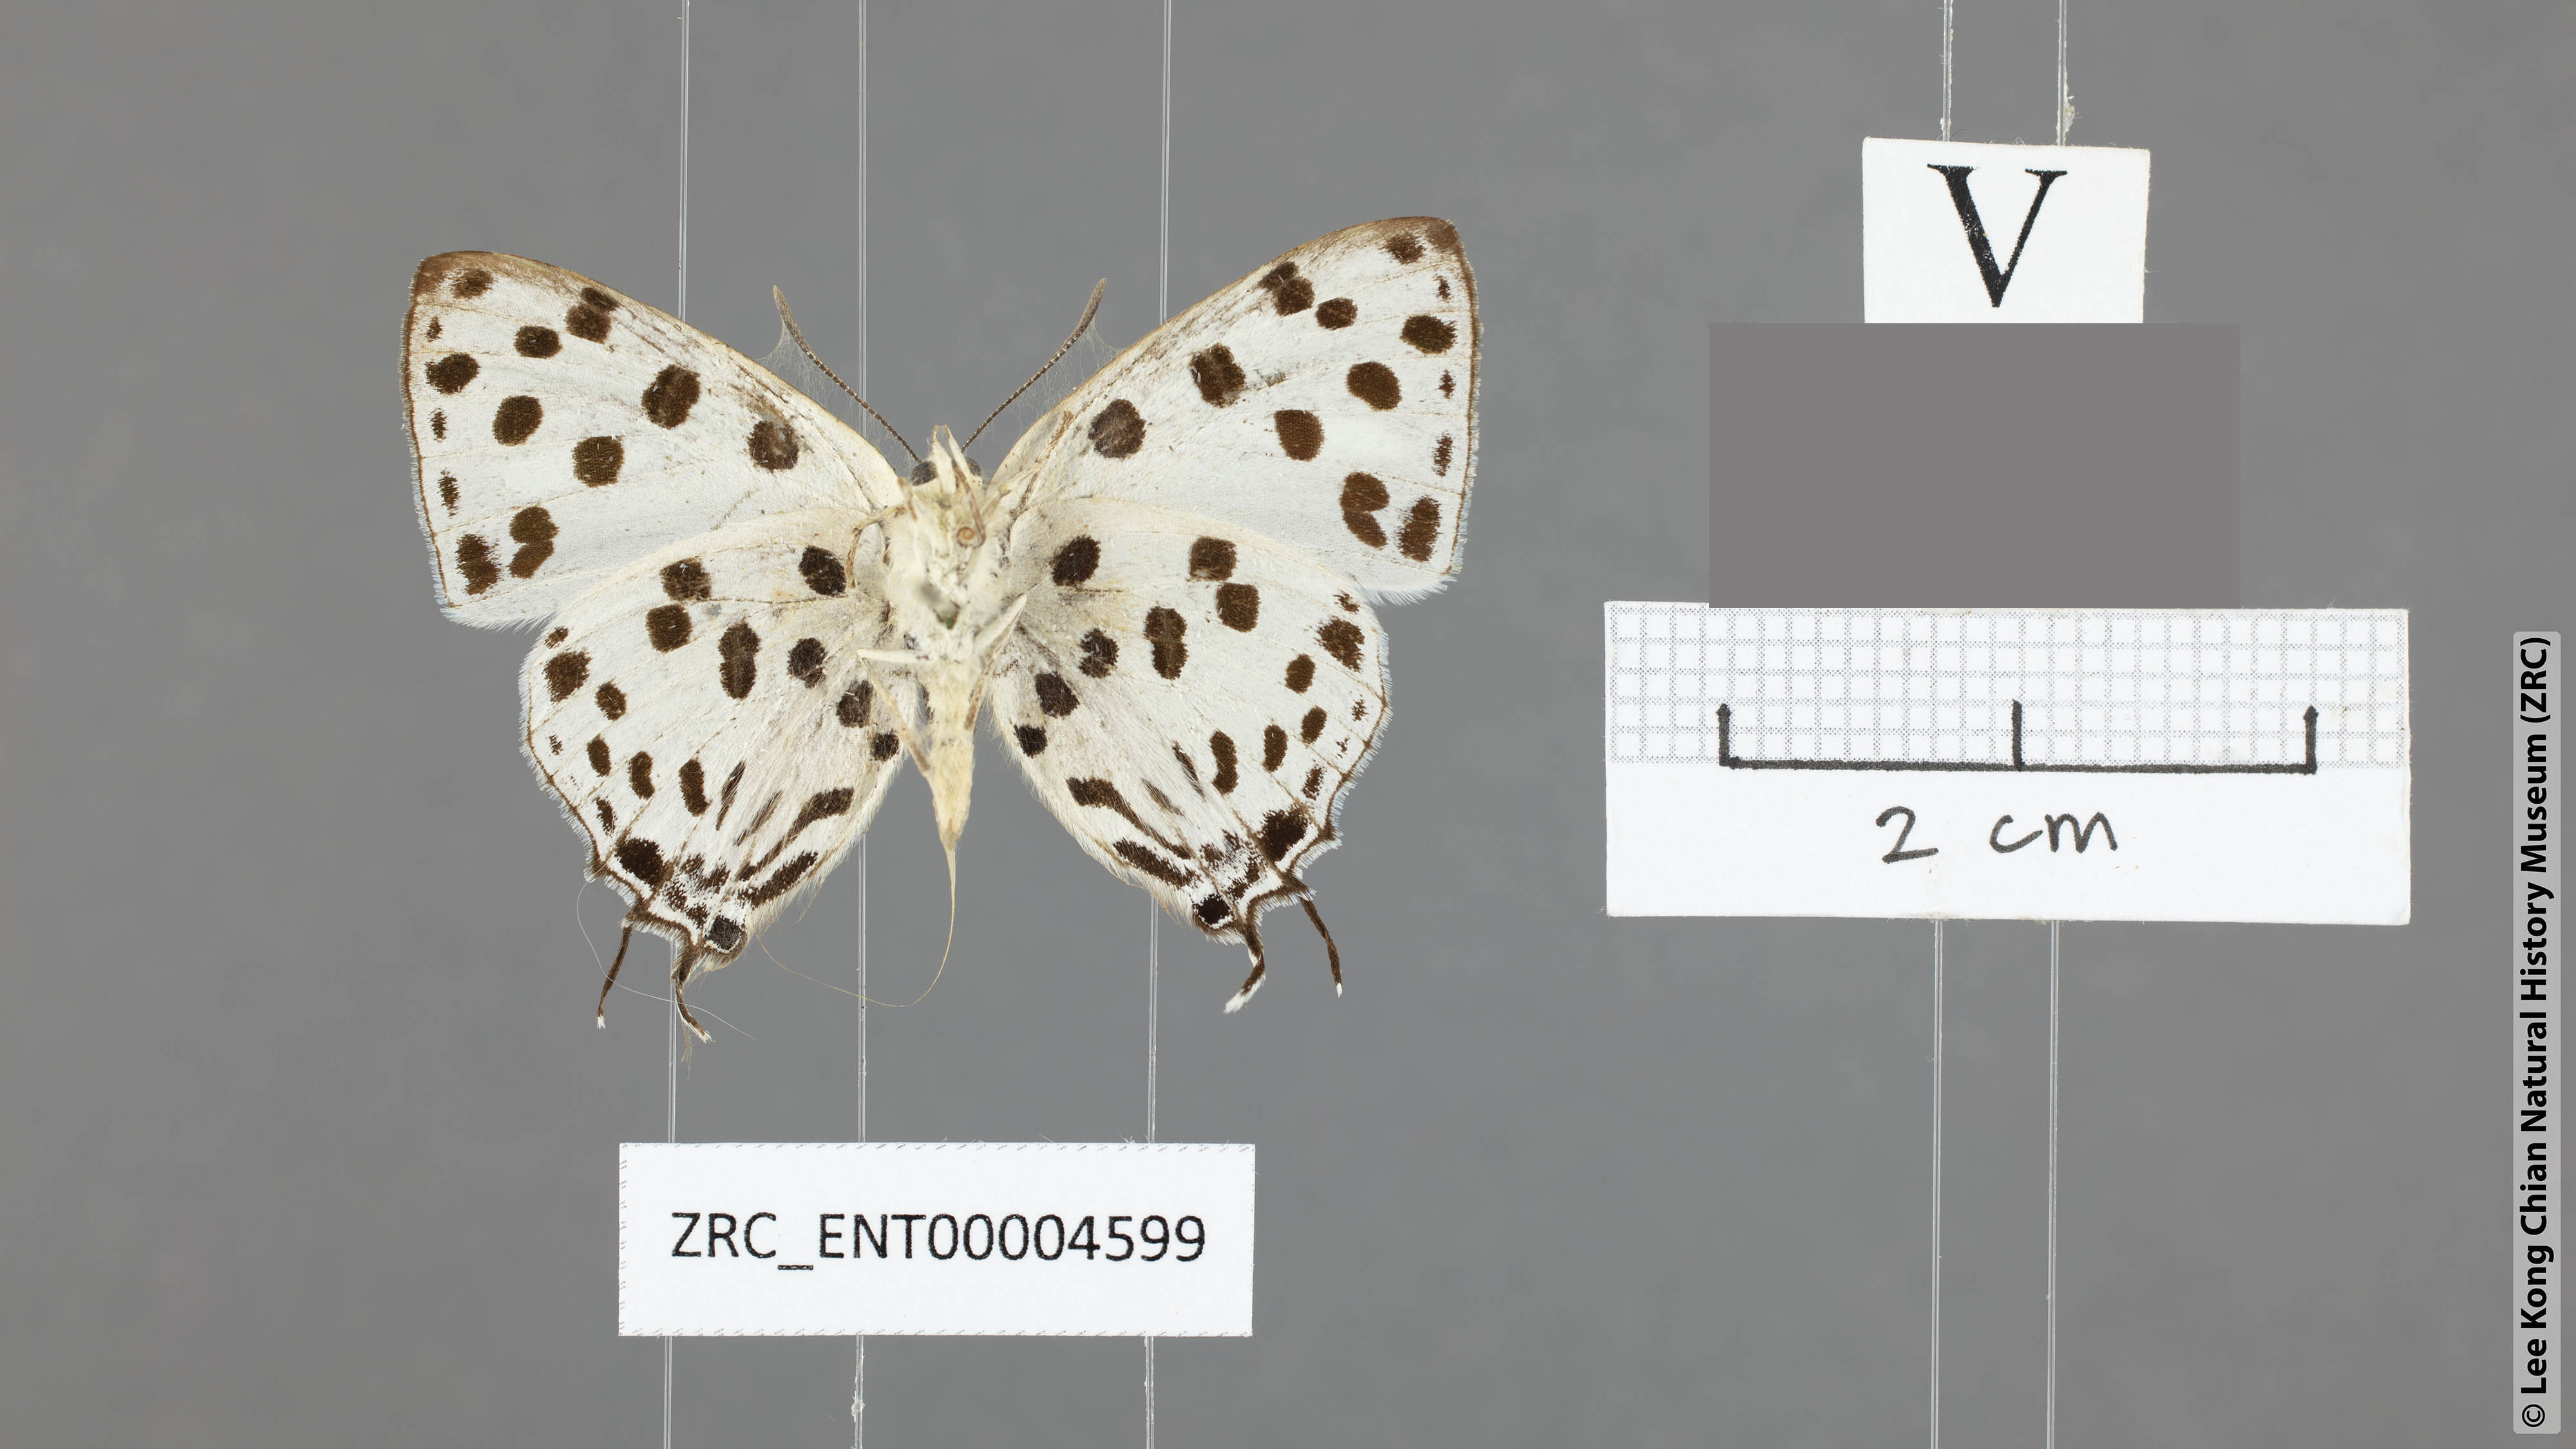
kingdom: Animalia
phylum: Arthropoda
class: Insecta
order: Lepidoptera
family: Lycaenidae
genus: Tajuria
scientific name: Tajuria maculatus
